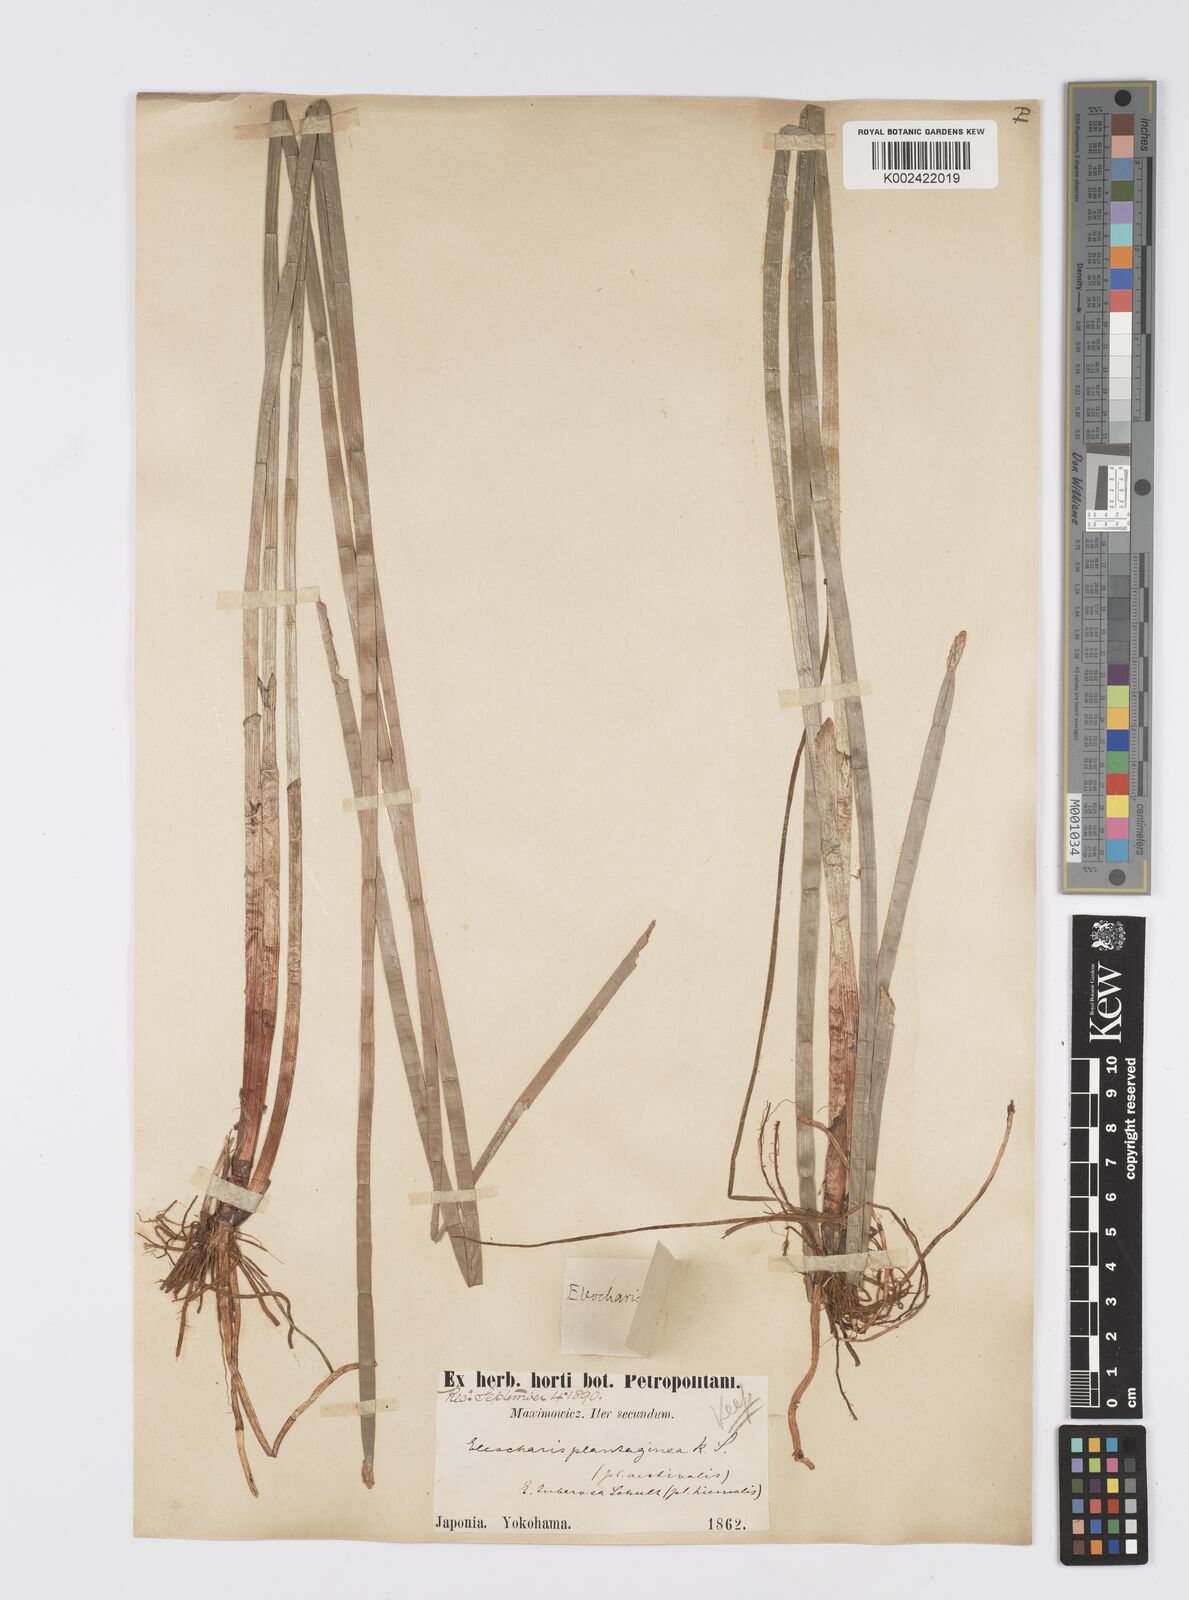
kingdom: Plantae
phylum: Tracheophyta
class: Liliopsida
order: Poales
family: Cyperaceae
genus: Eleocharis
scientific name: Eleocharis dulcis
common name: Chinese water chestnut
